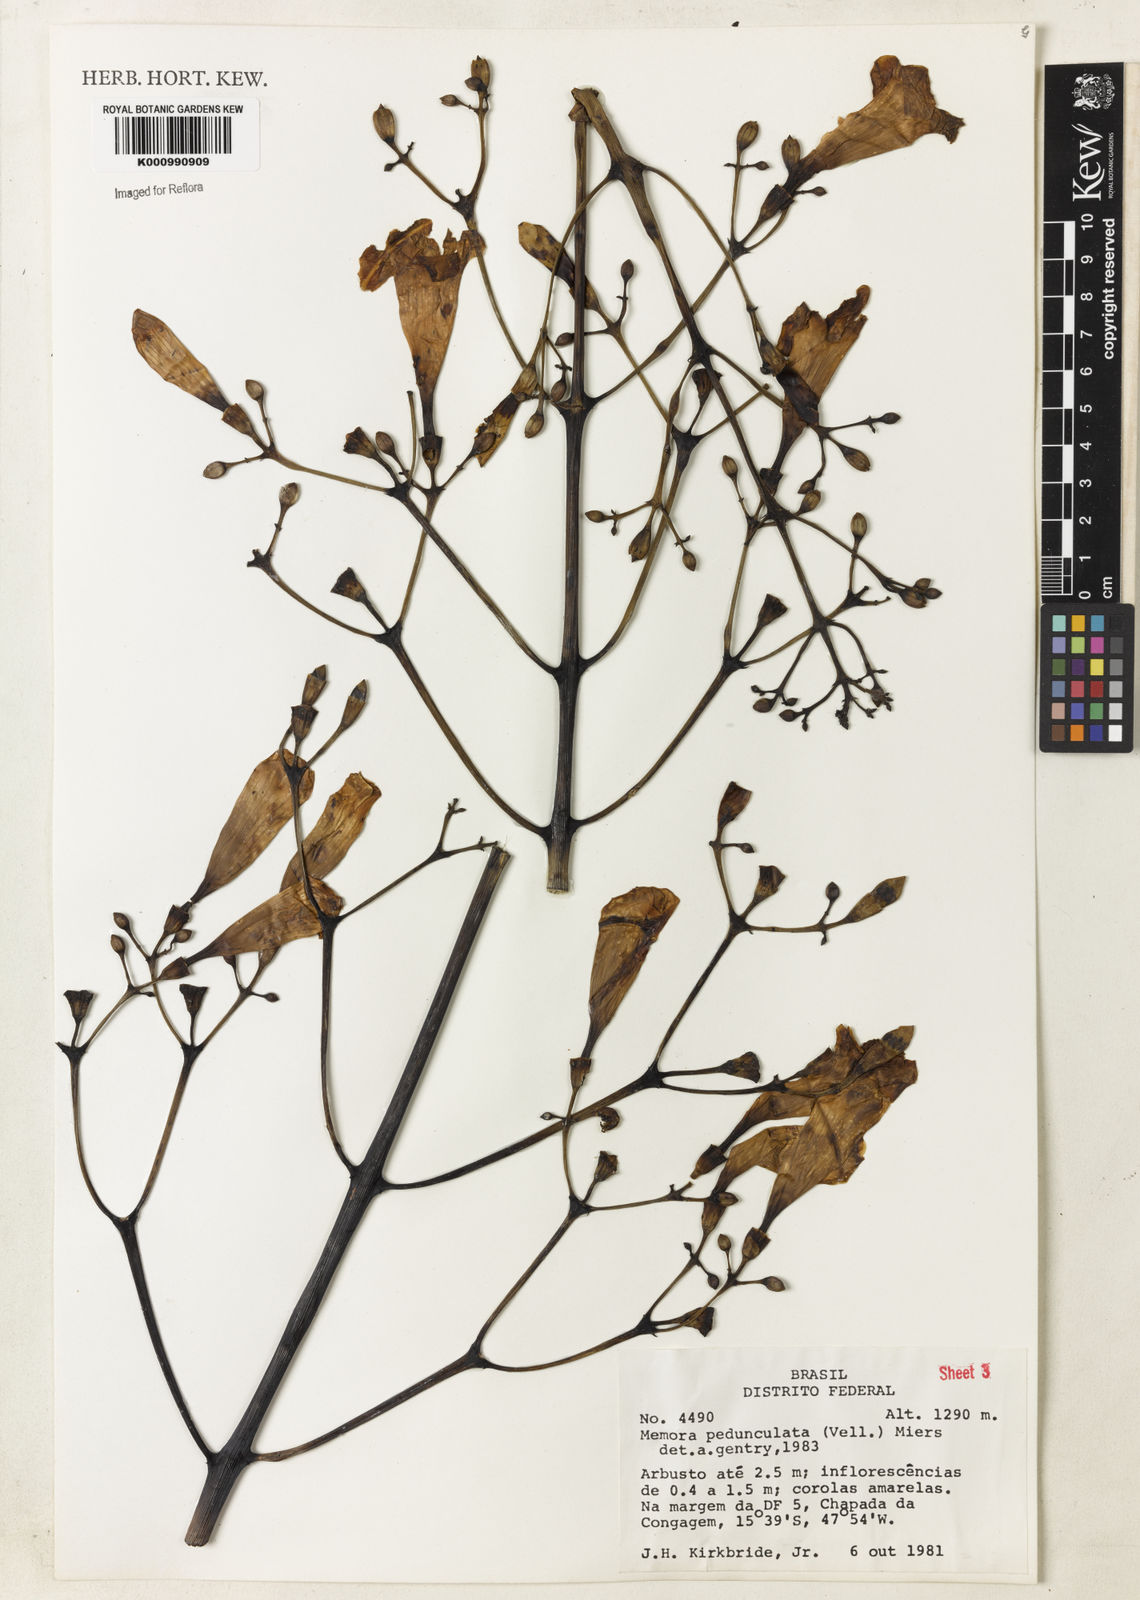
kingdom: Plantae
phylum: Tracheophyta
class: Magnoliopsida
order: Lamiales
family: Bignoniaceae
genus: Adenocalymma
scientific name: Adenocalymma pedunculatum
